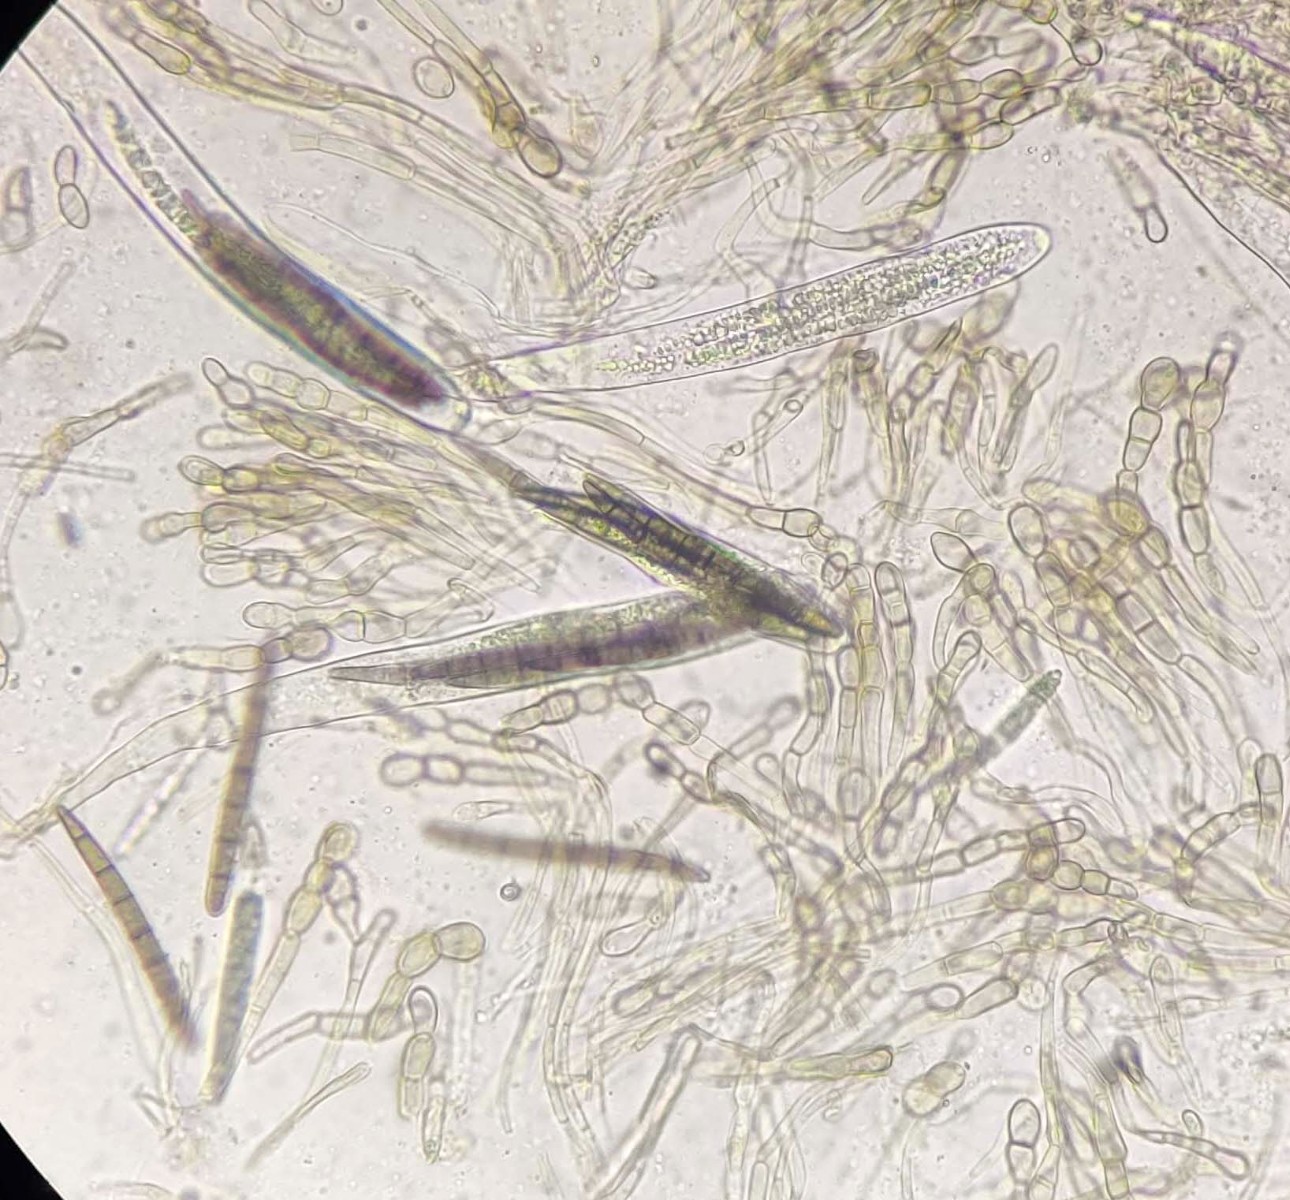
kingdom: Fungi
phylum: Ascomycota
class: Geoglossomycetes
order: Geoglossales
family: Geoglossaceae
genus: Geoglossum
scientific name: Geoglossum cookeianum
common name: bred jordtunge
